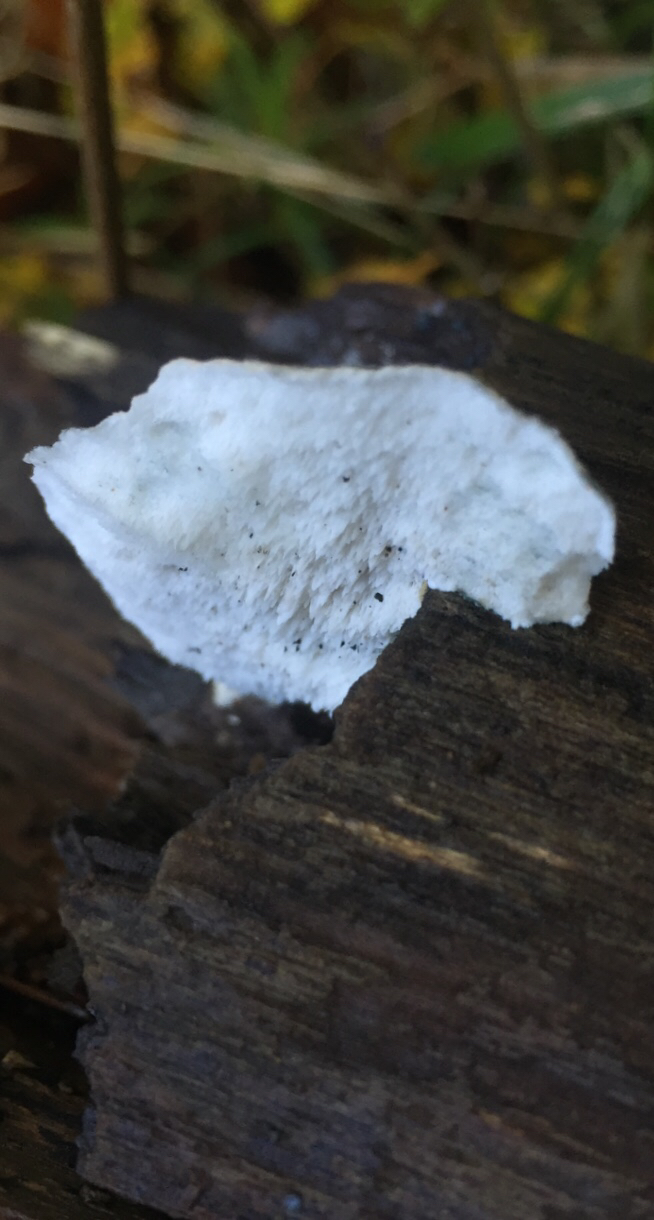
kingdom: Fungi
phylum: Basidiomycota
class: Agaricomycetes
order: Polyporales
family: Polyporaceae
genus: Cyanosporus
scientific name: Cyanosporus alni
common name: blegblå kødporesvamp
